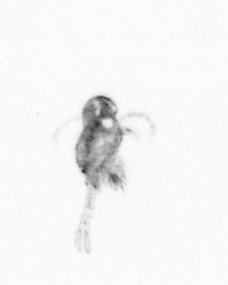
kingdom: Animalia
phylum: Arthropoda
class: Copepoda
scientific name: Copepoda
